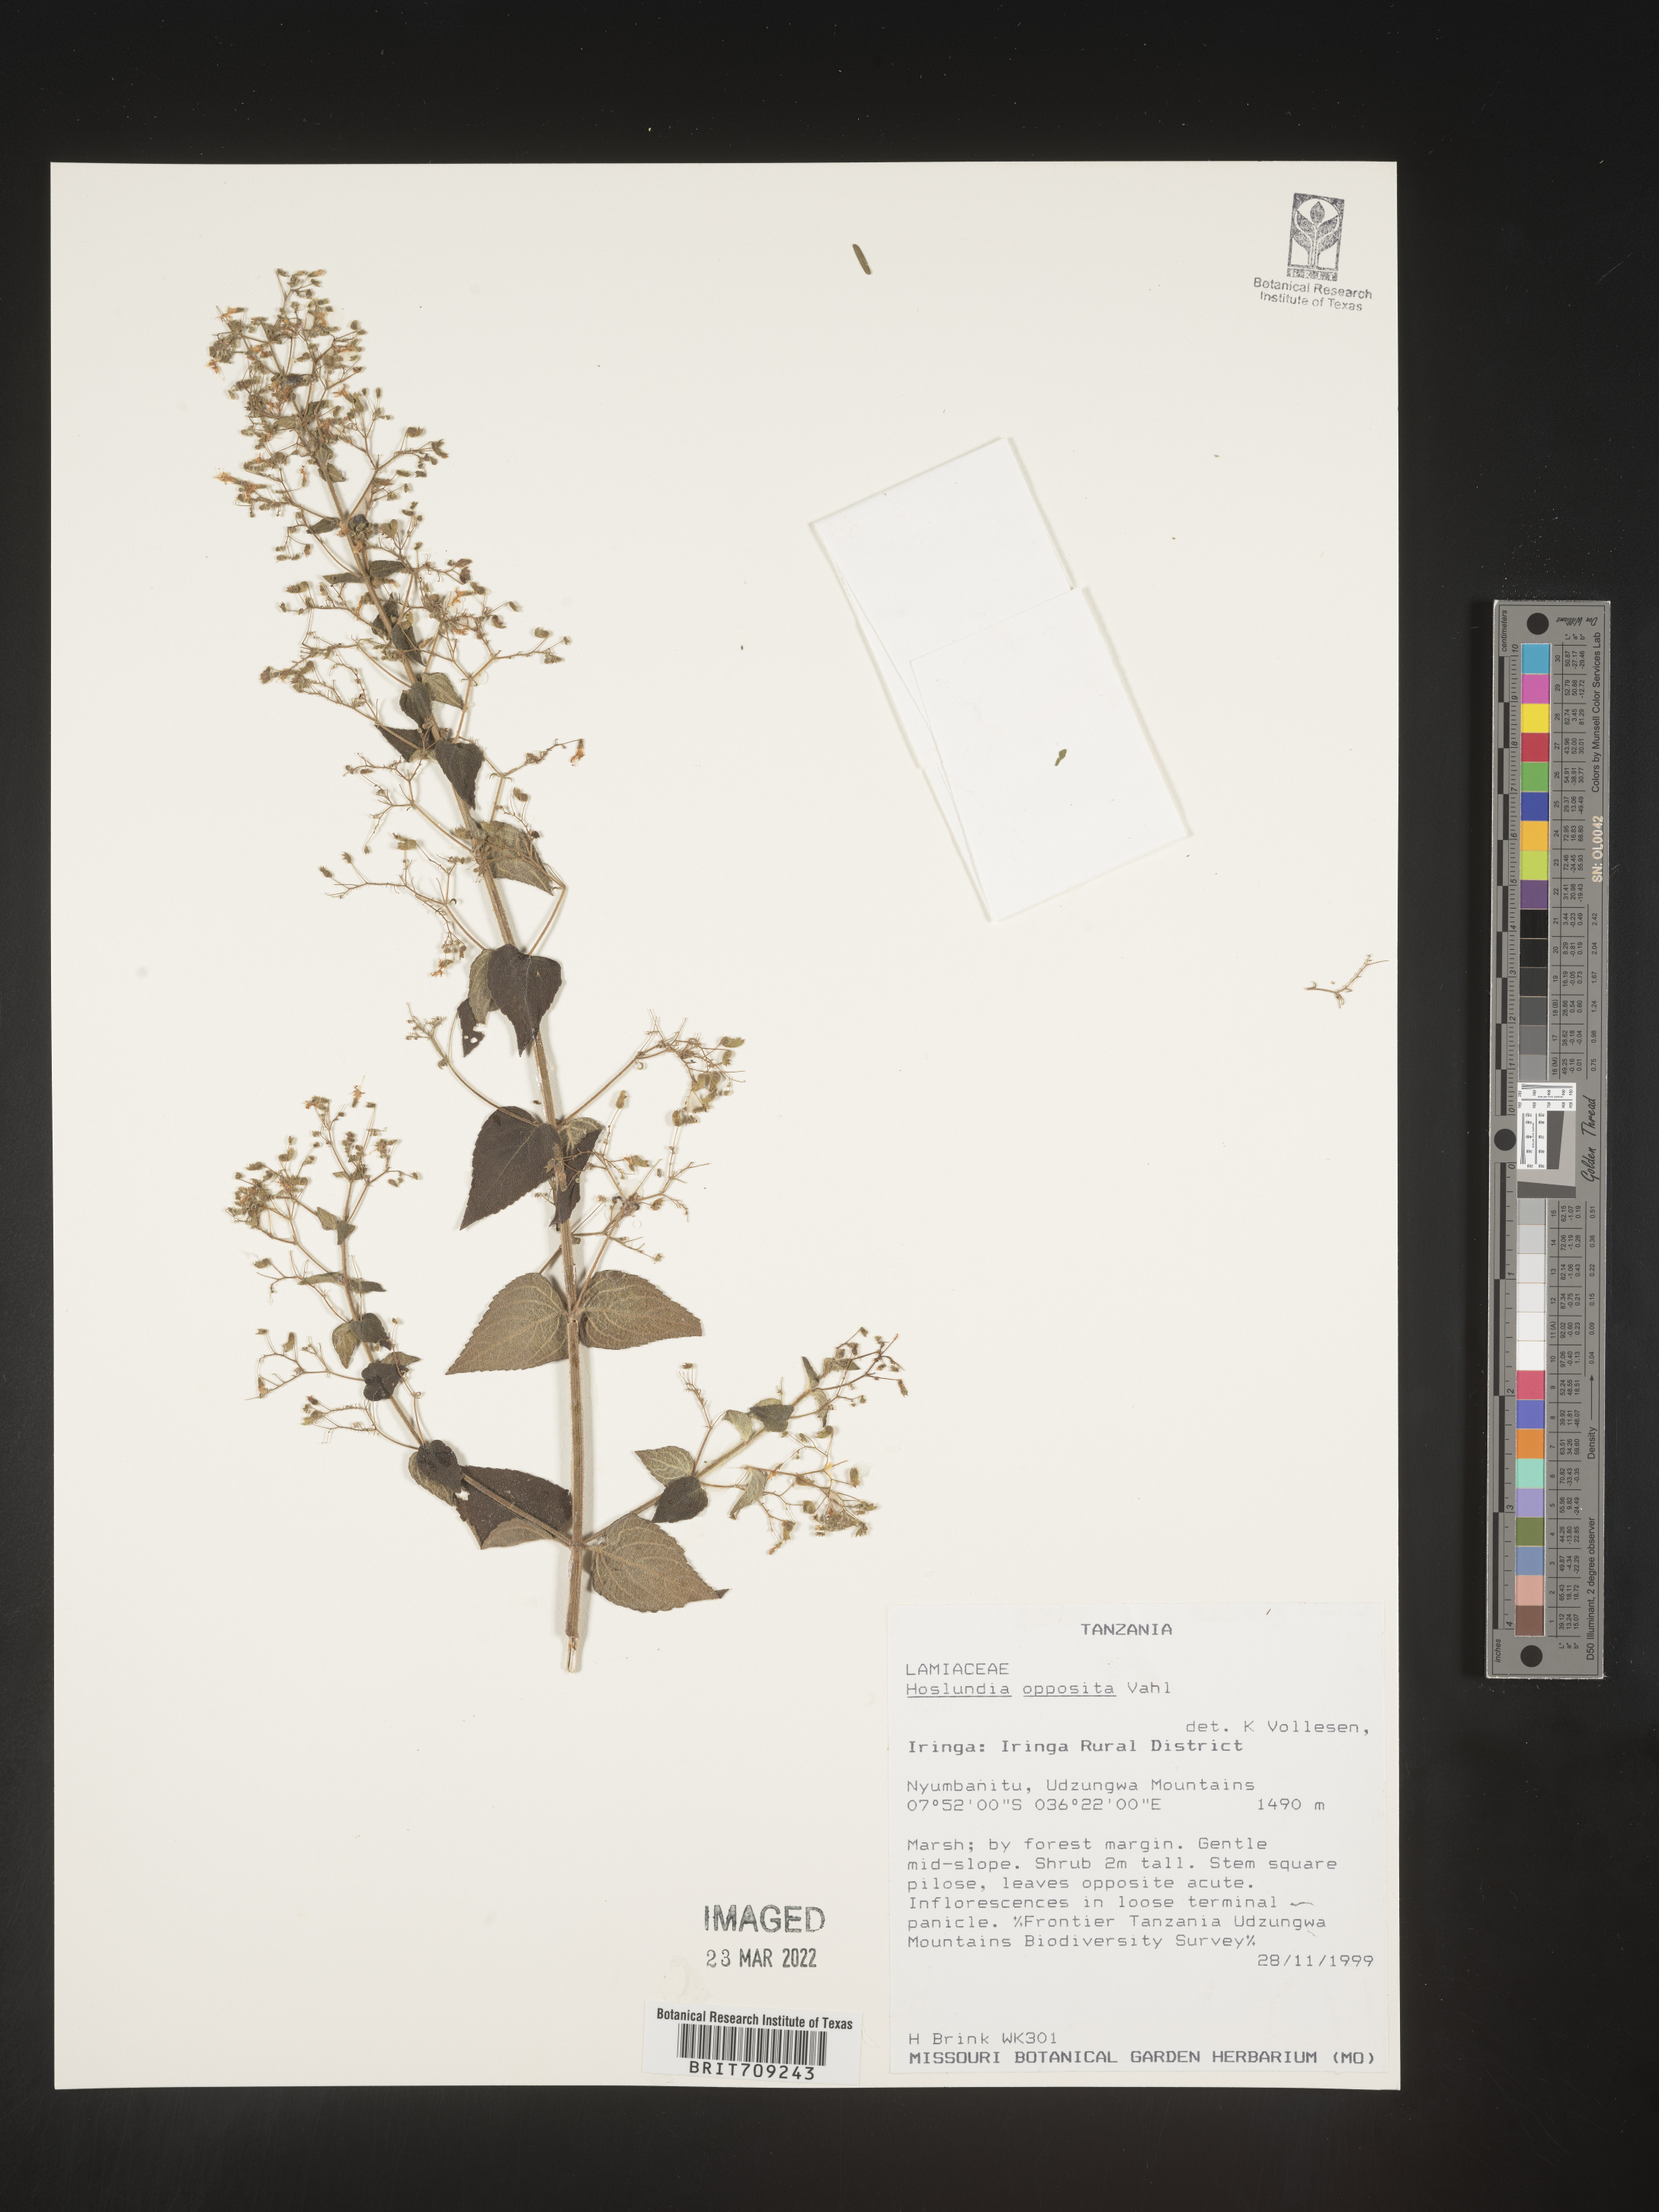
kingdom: Plantae
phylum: Tracheophyta
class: Magnoliopsida
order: Lamiales
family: Lamiaceae
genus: Hoslundia
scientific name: Hoslundia opposita
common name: Kamyuye
